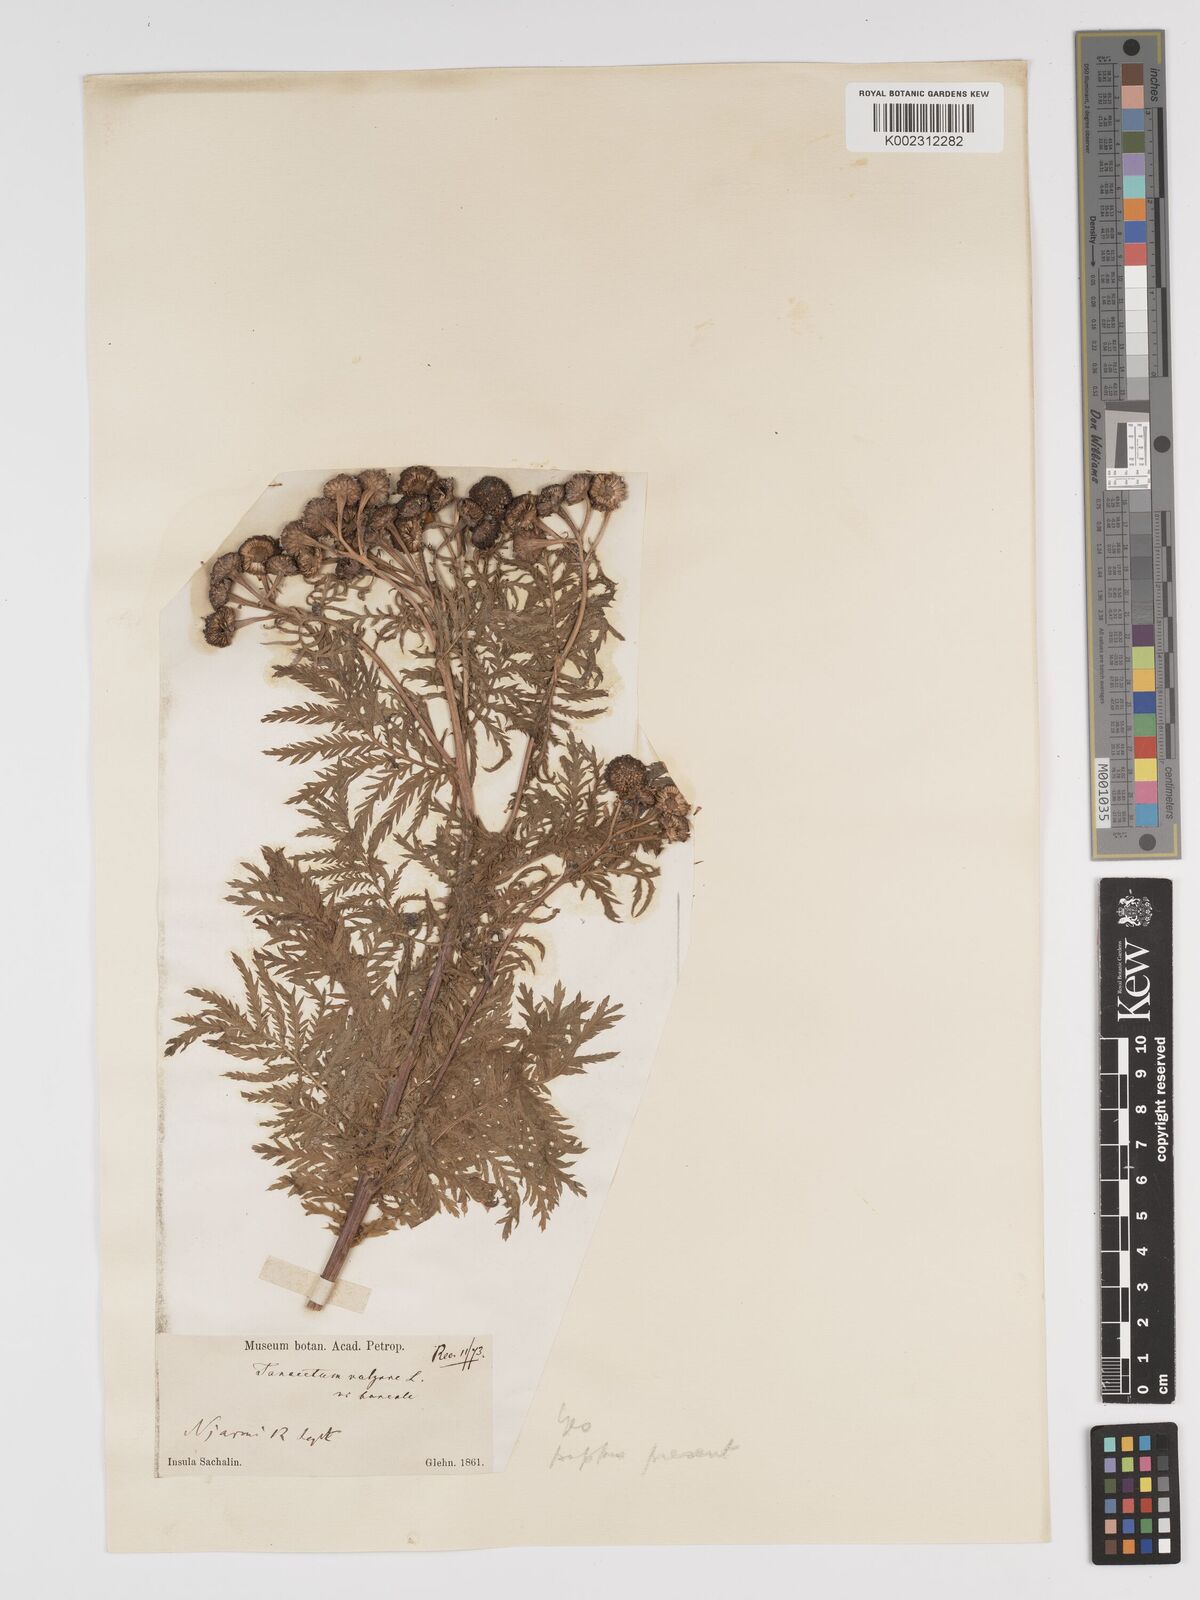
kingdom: Plantae
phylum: Tracheophyta
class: Magnoliopsida
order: Asterales
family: Asteraceae
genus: Tanacetum
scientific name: Tanacetum vulgare
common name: Common tansy
